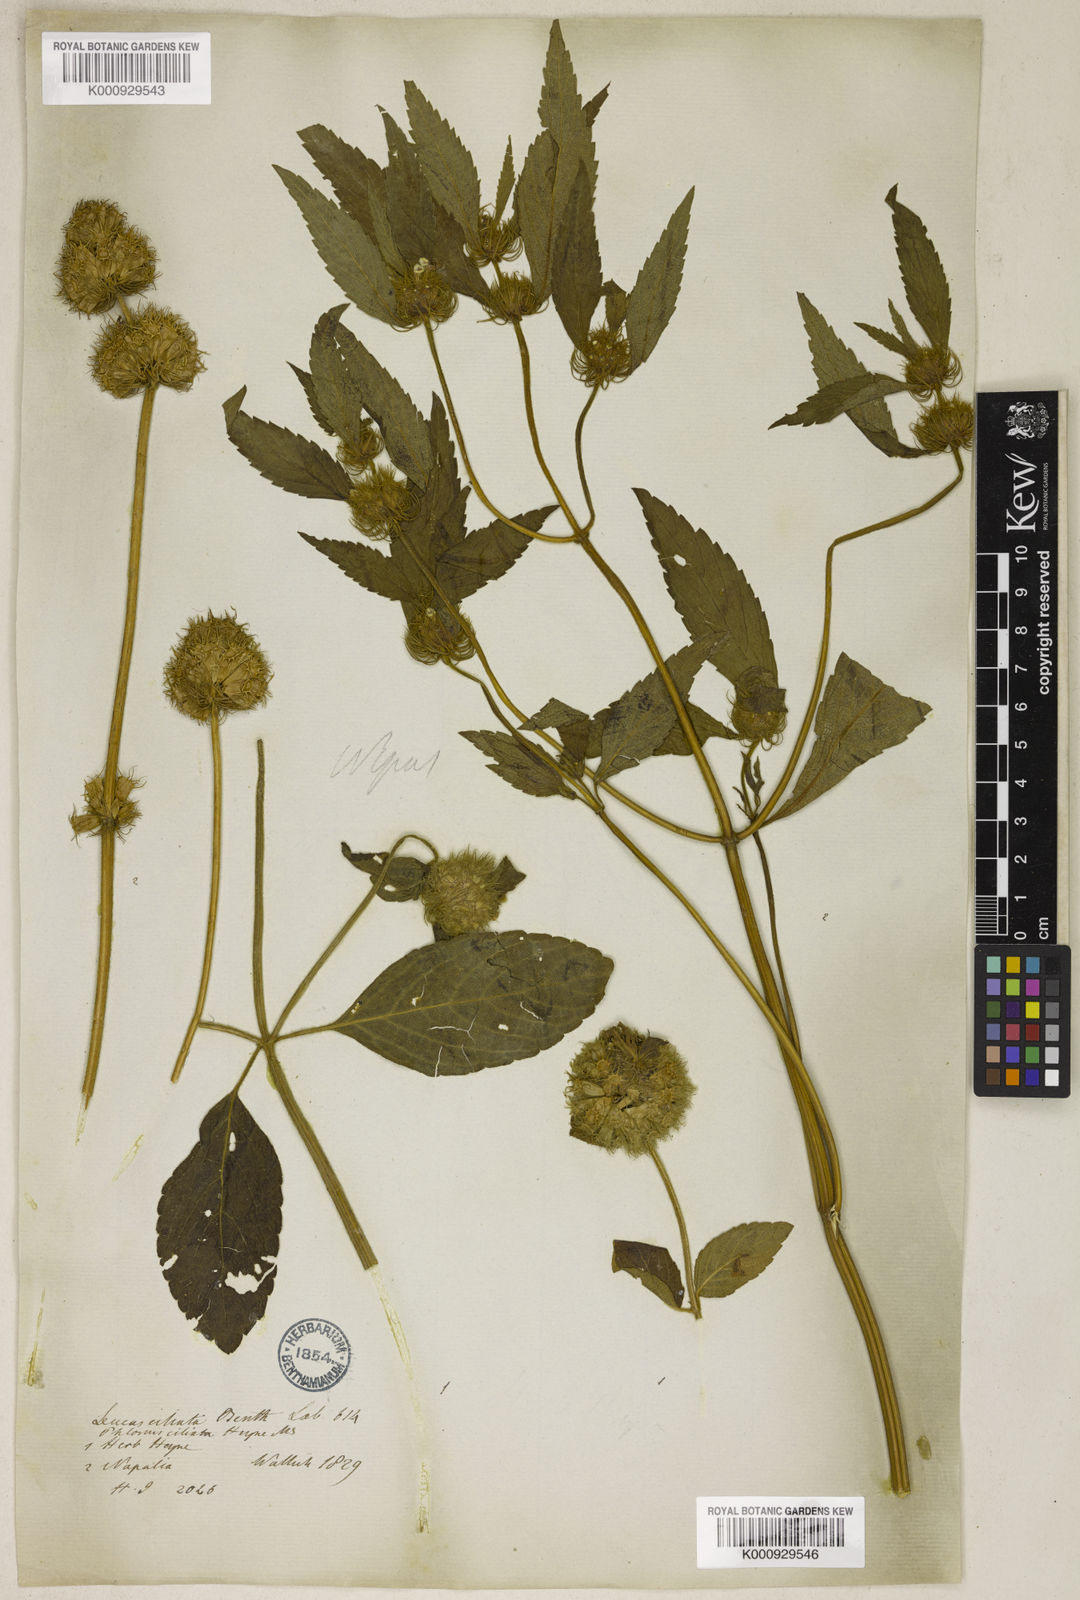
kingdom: Plantae
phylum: Tracheophyta
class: Magnoliopsida
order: Lamiales
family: Lamiaceae
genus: Leucas
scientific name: Leucas ciliata
